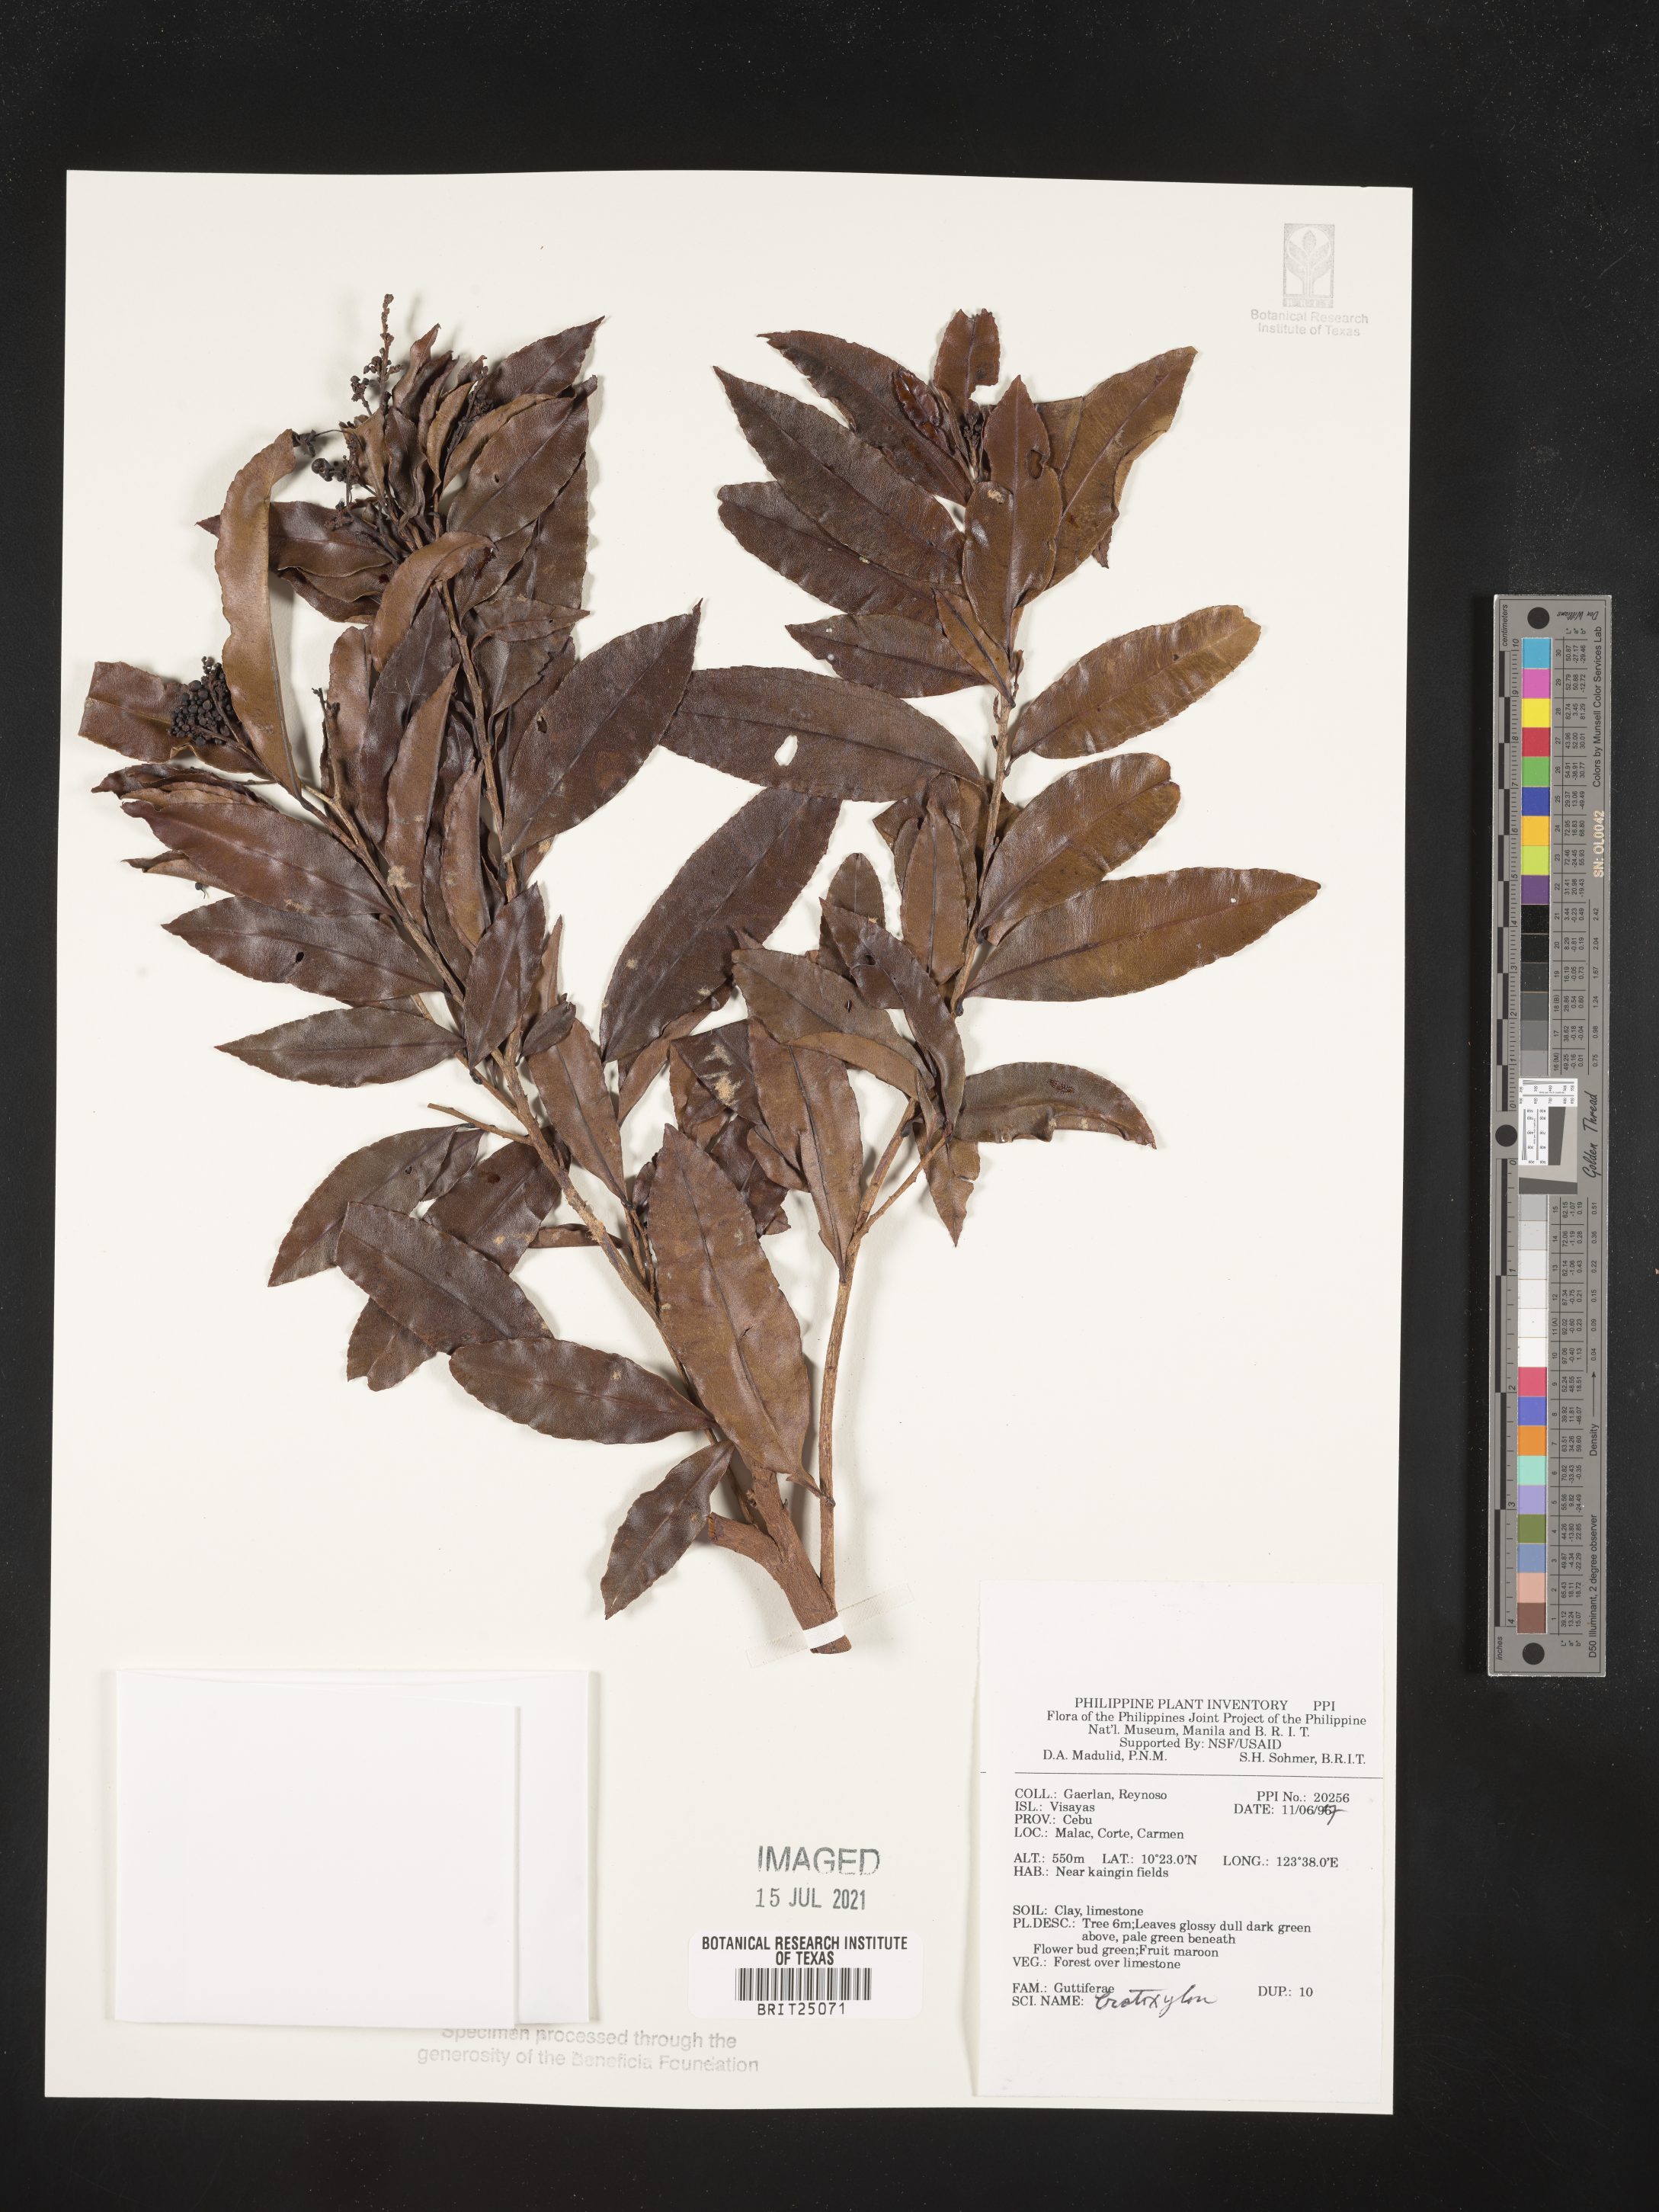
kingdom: Plantae
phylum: Tracheophyta
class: Magnoliopsida
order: Malpighiales
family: Hypericaceae
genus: Cratoxylum
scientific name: Cratoxylum
